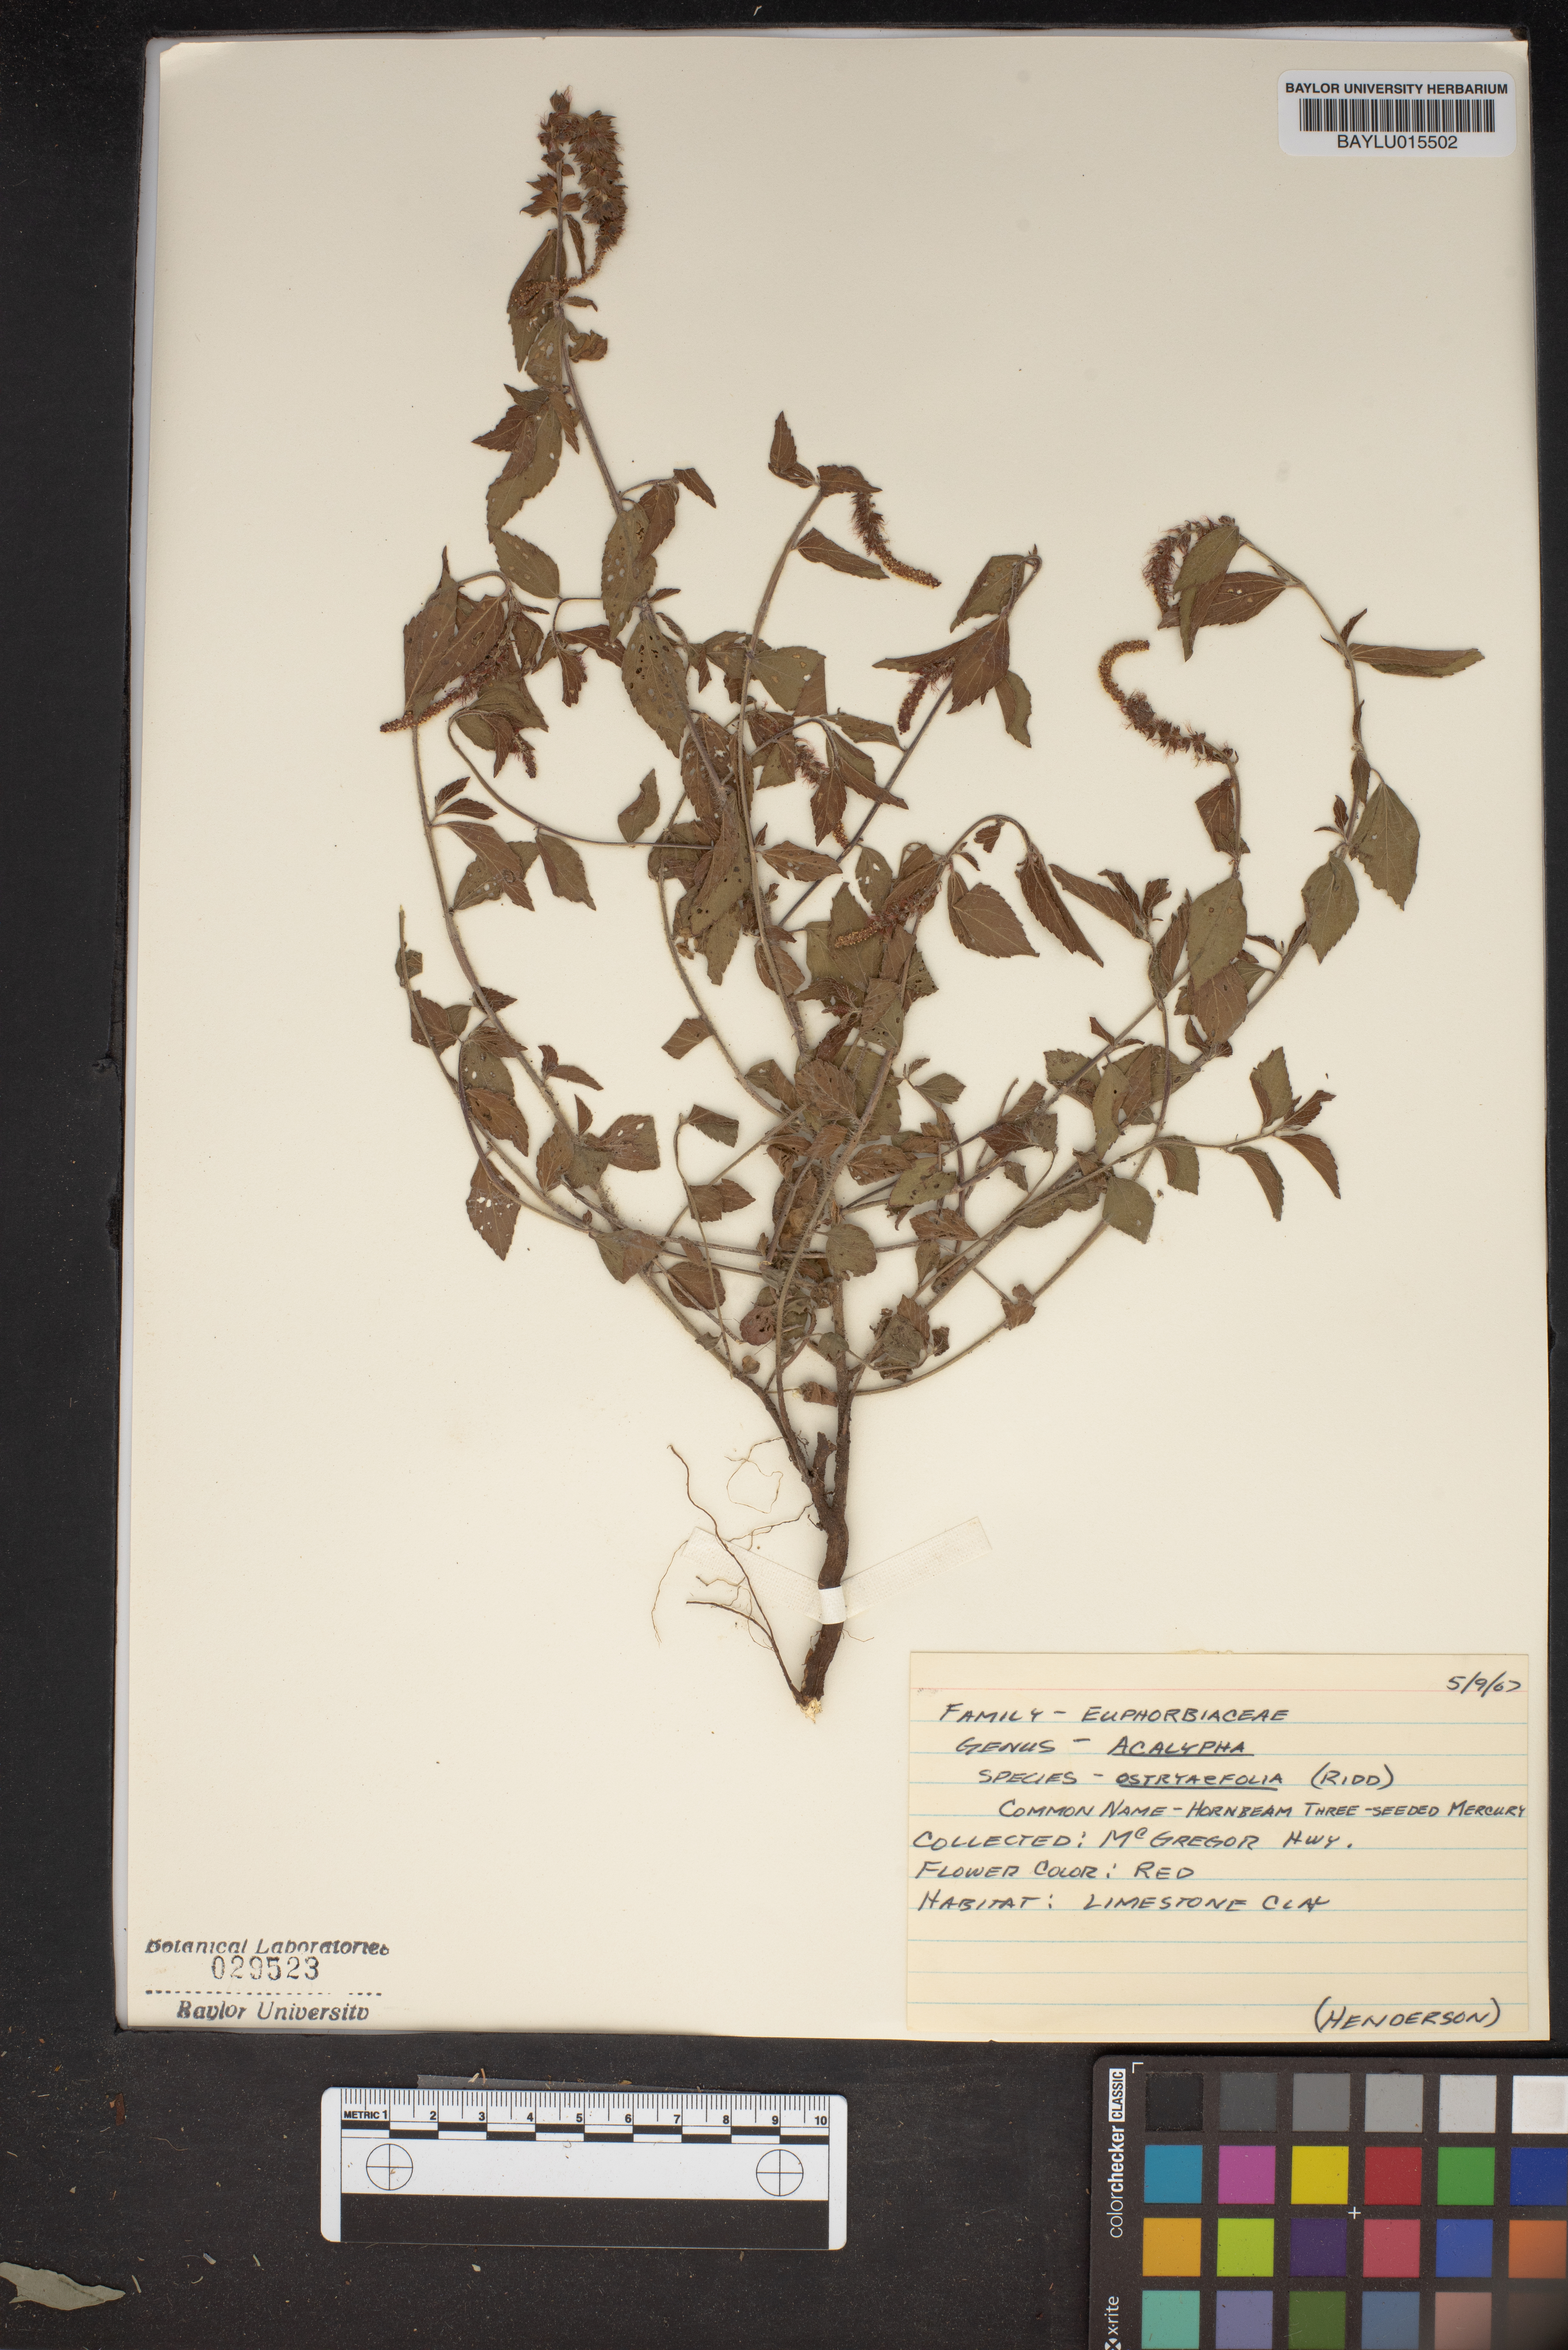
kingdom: Plantae
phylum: Tracheophyta
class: Magnoliopsida
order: Malpighiales
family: Euphorbiaceae
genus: Acalypha
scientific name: Acalypha ostryifolia
